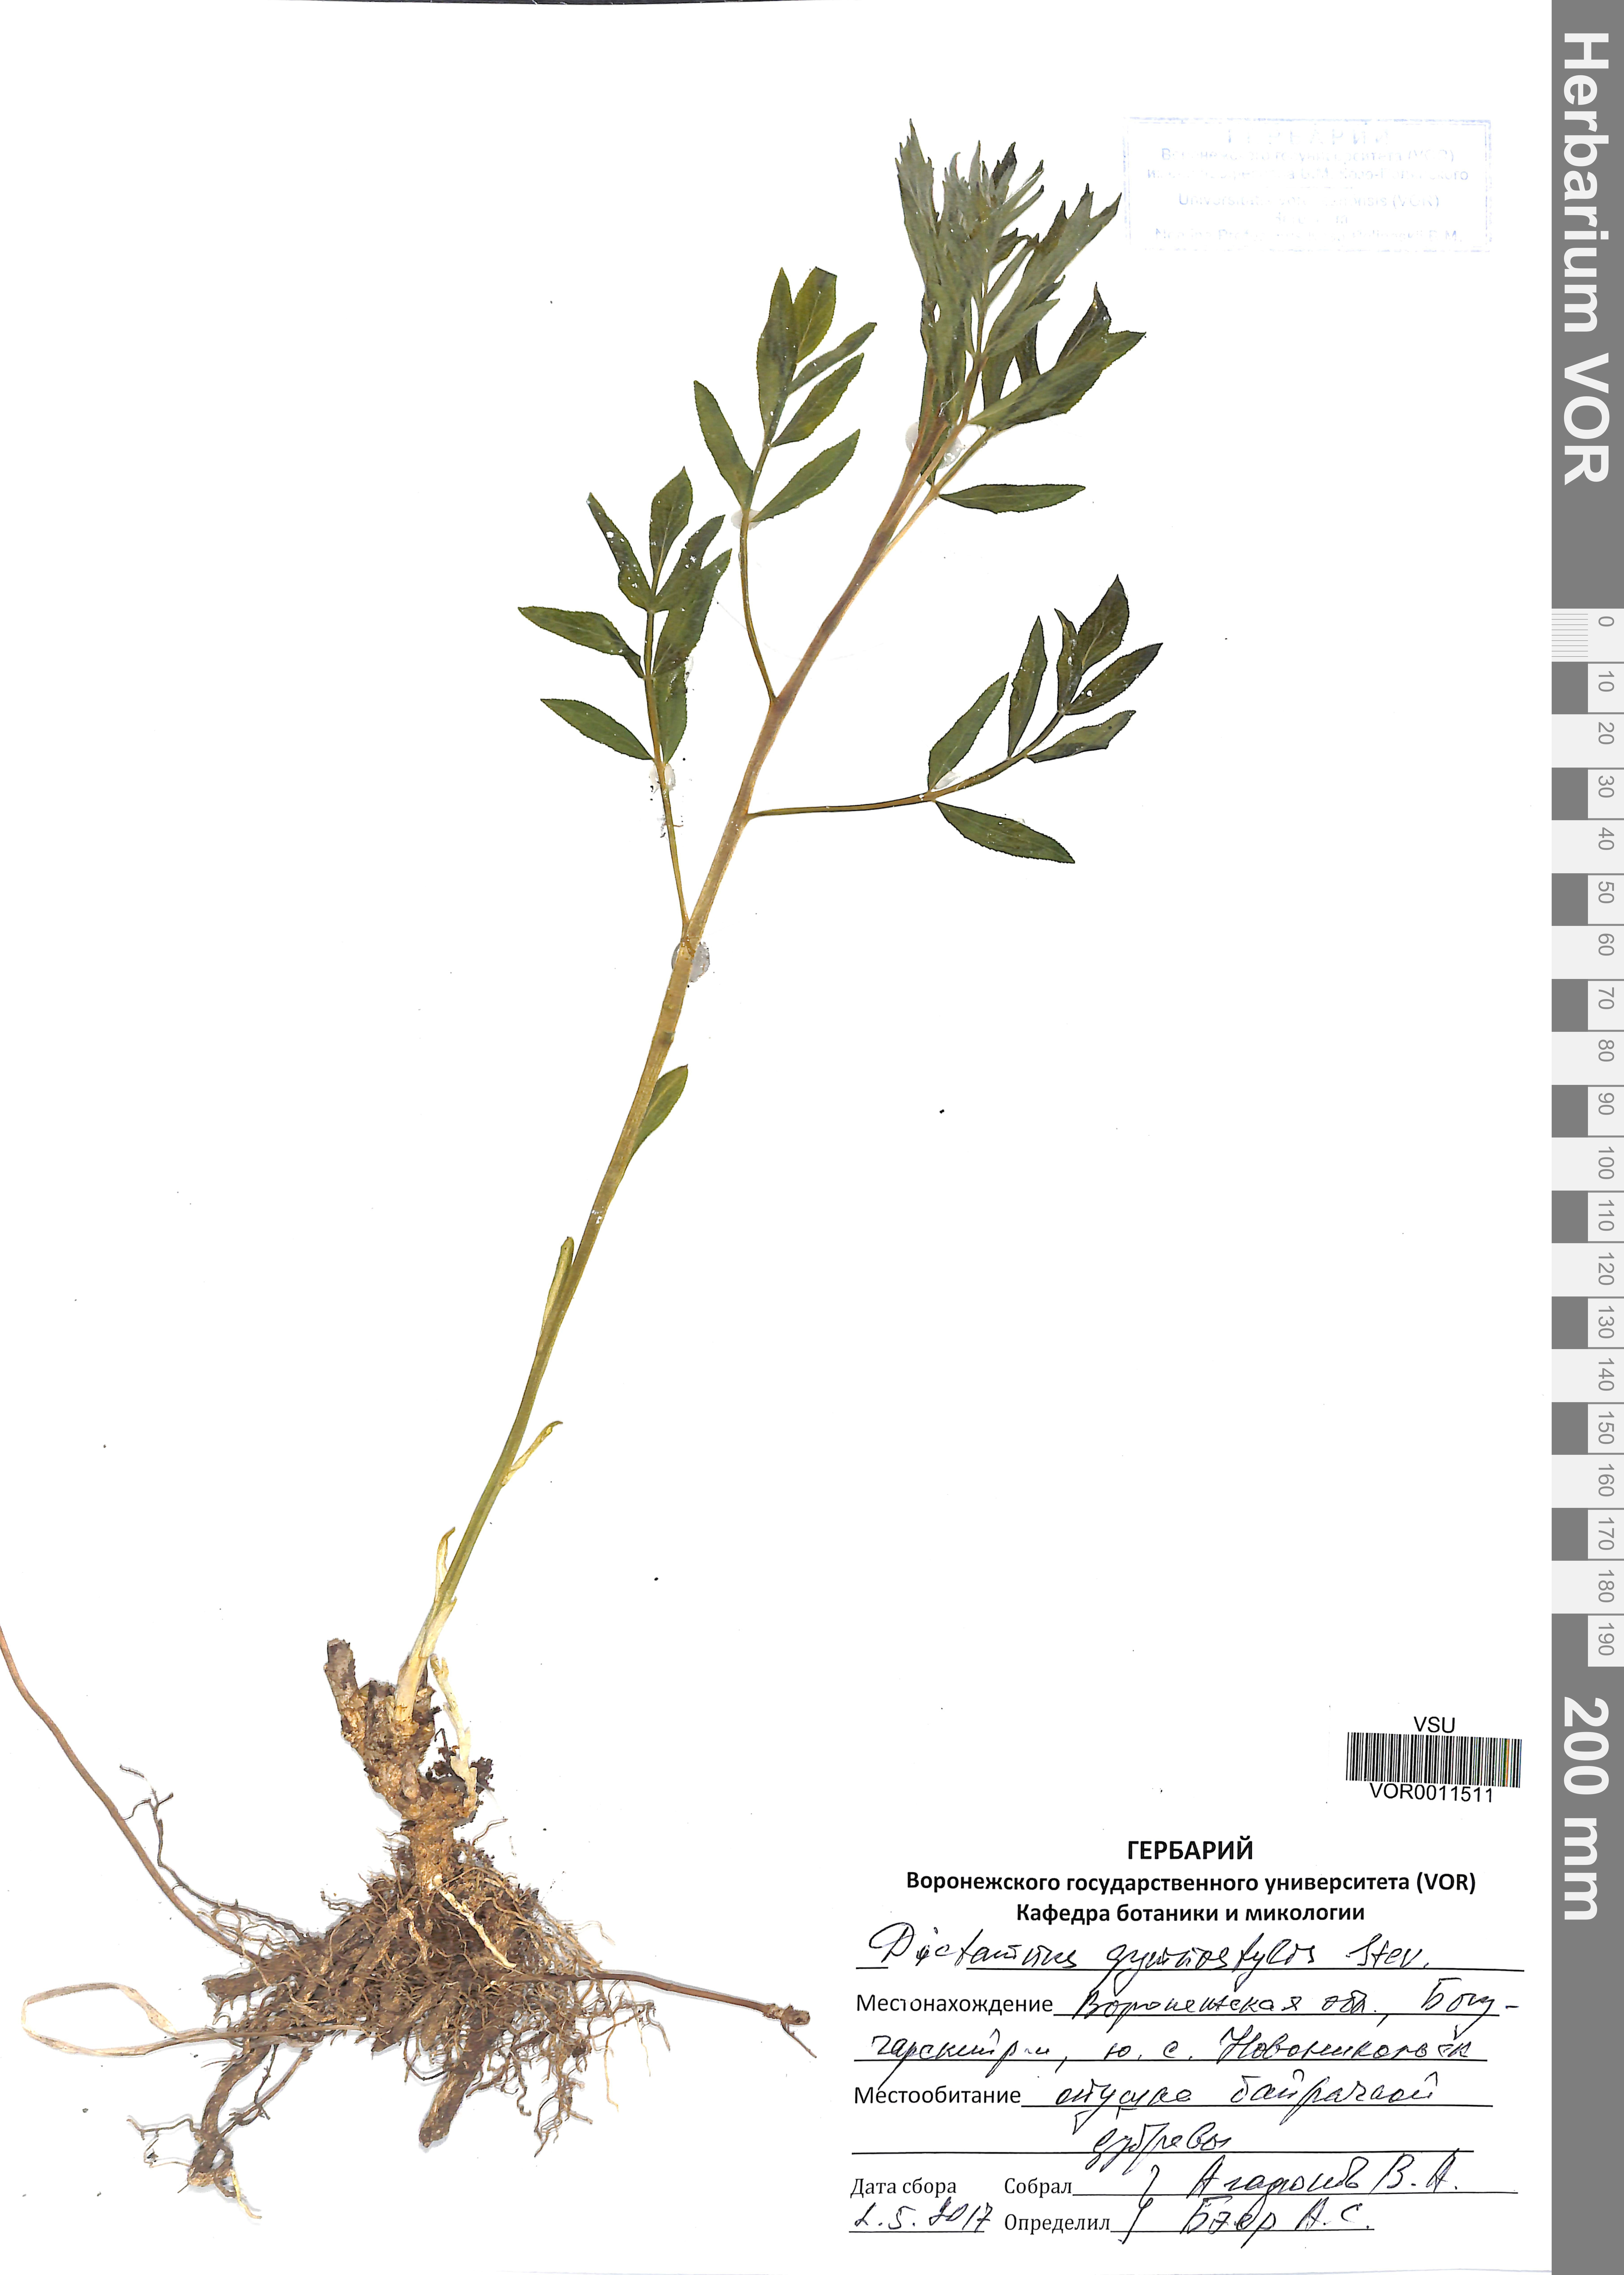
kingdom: Plantae
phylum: Tracheophyta
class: Magnoliopsida
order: Sapindales
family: Rutaceae
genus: Dictamnus
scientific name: Dictamnus albus
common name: Gasplant
